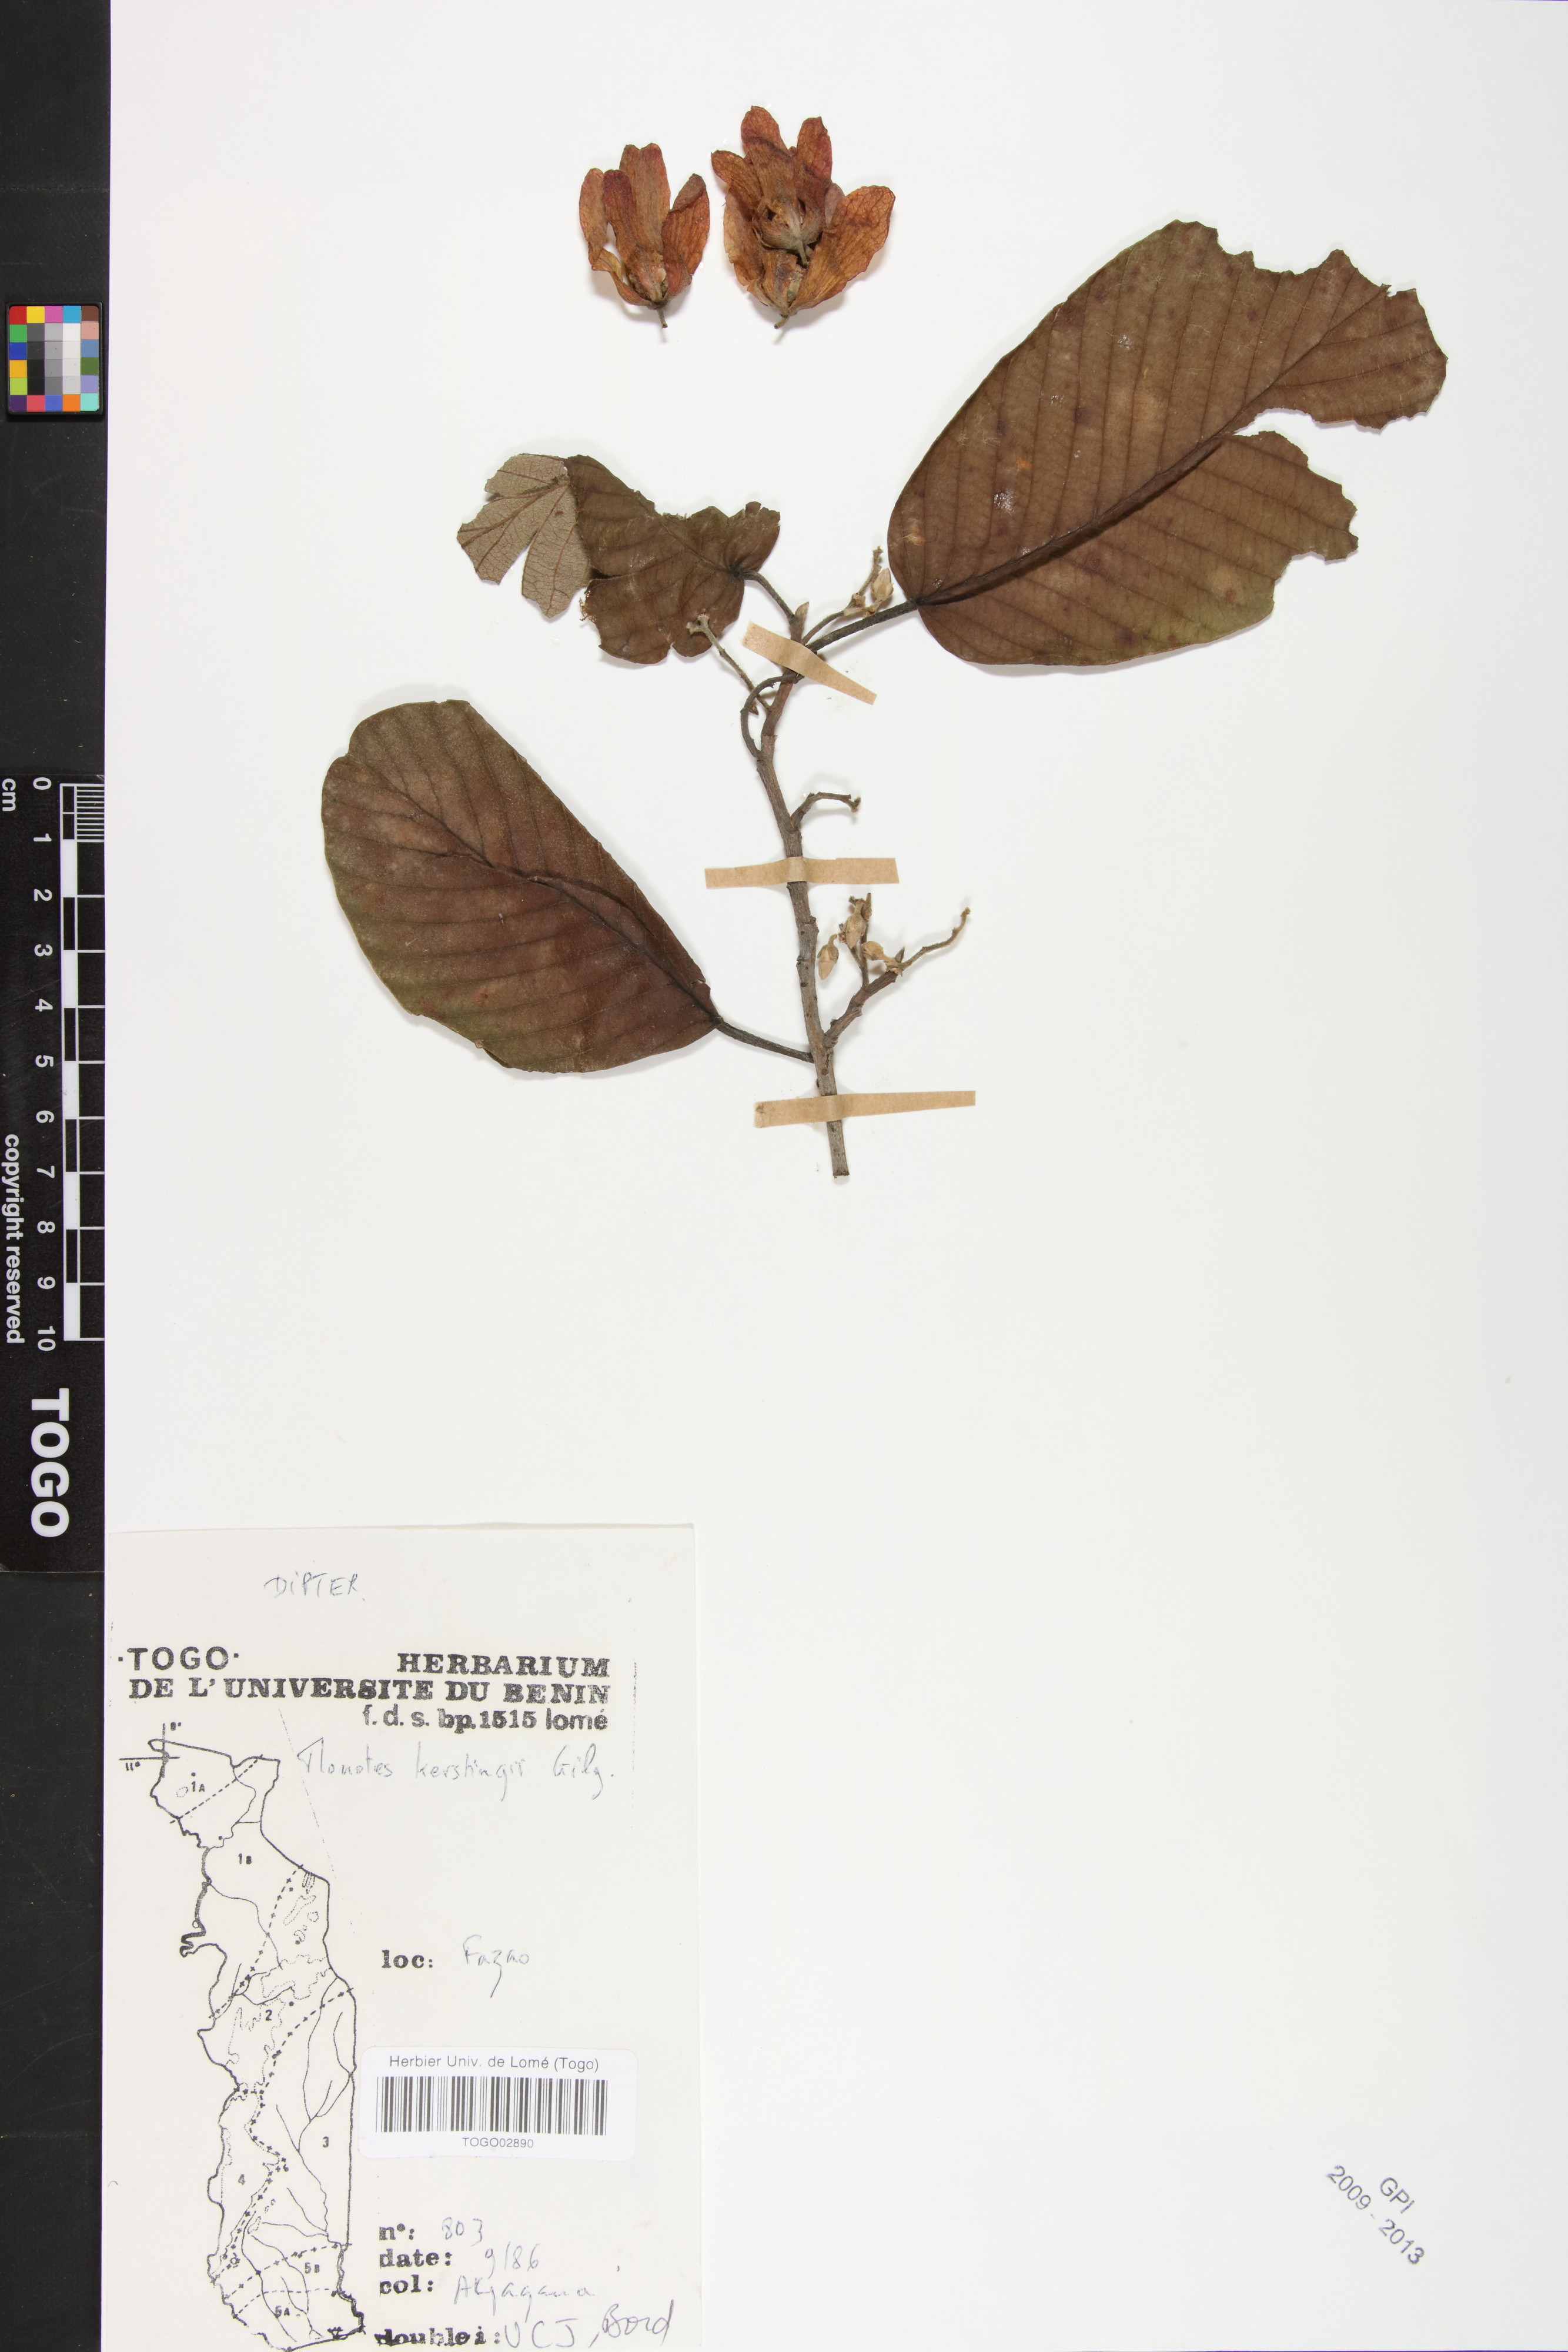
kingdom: Plantae
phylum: Tracheophyta
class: Magnoliopsida
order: Malvales
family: Dipterocarpaceae
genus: Monotes
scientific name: Monotes kerstingii
